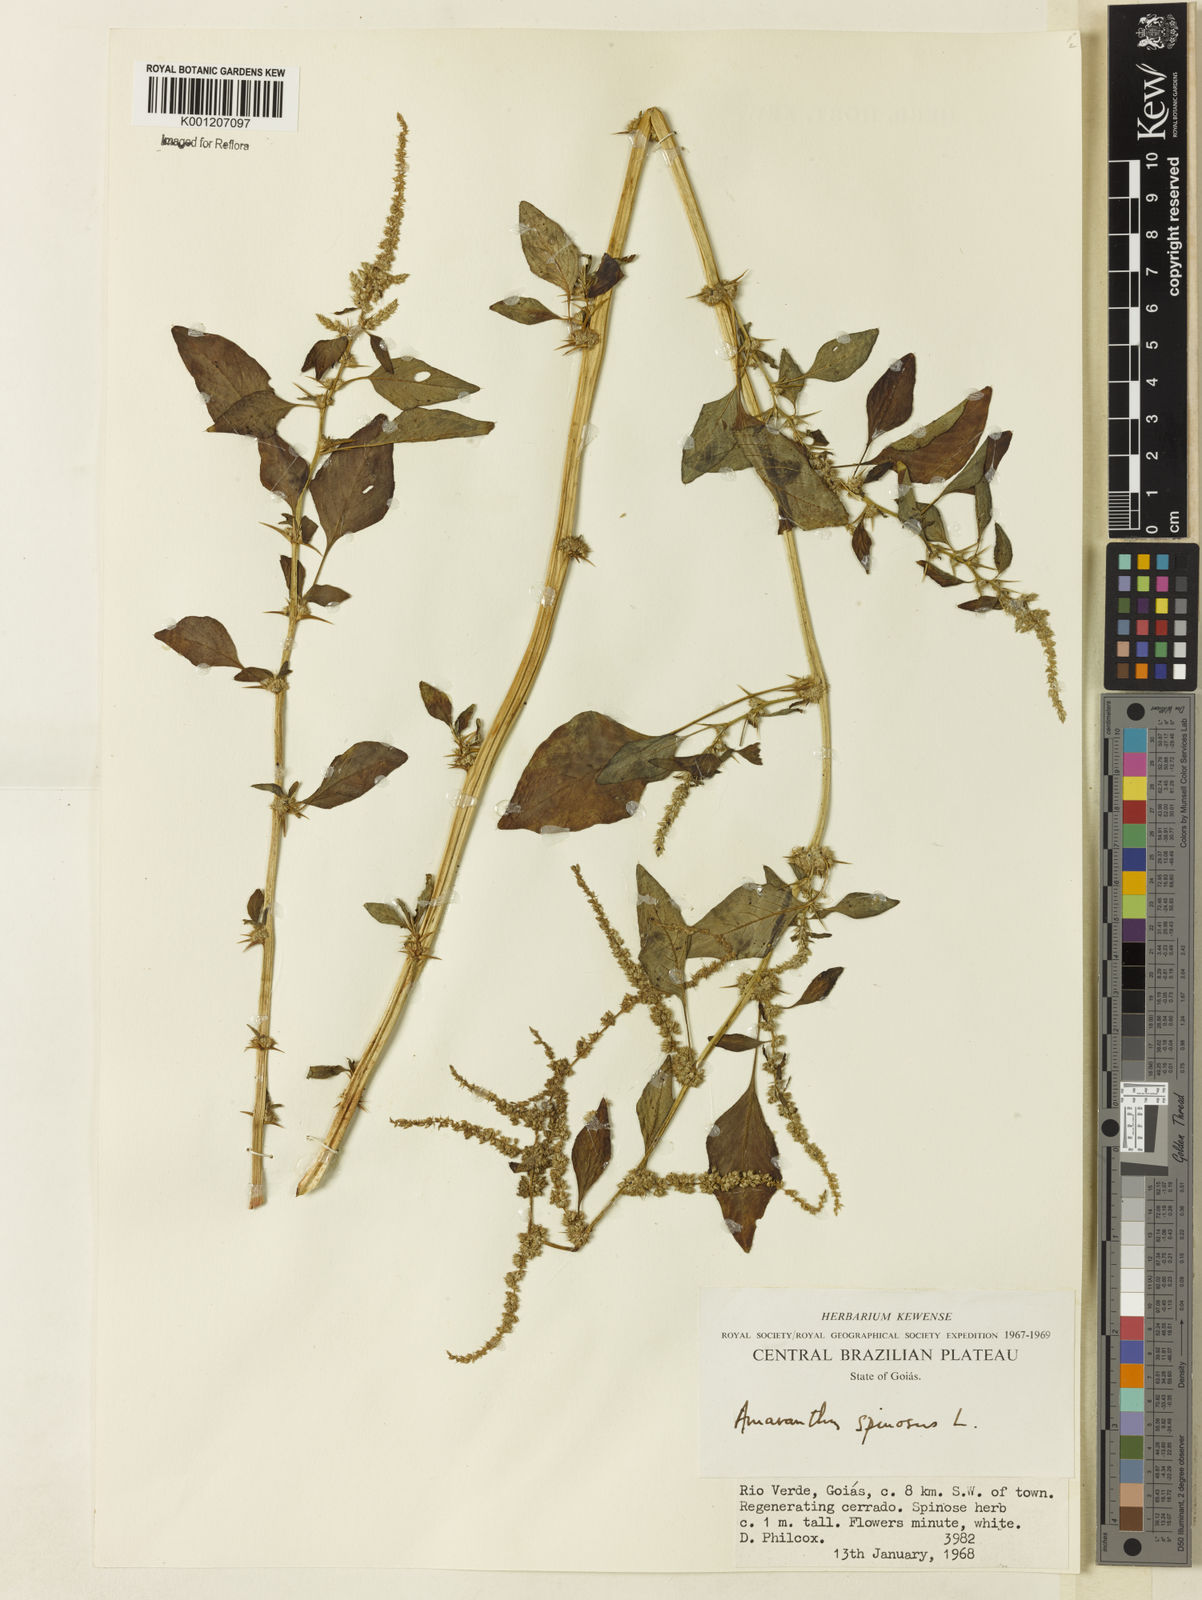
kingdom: Plantae
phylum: Tracheophyta
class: Magnoliopsida
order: Caryophyllales
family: Amaranthaceae
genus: Amaranthus
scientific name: Amaranthus spinosus
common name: Spiny amaranth
